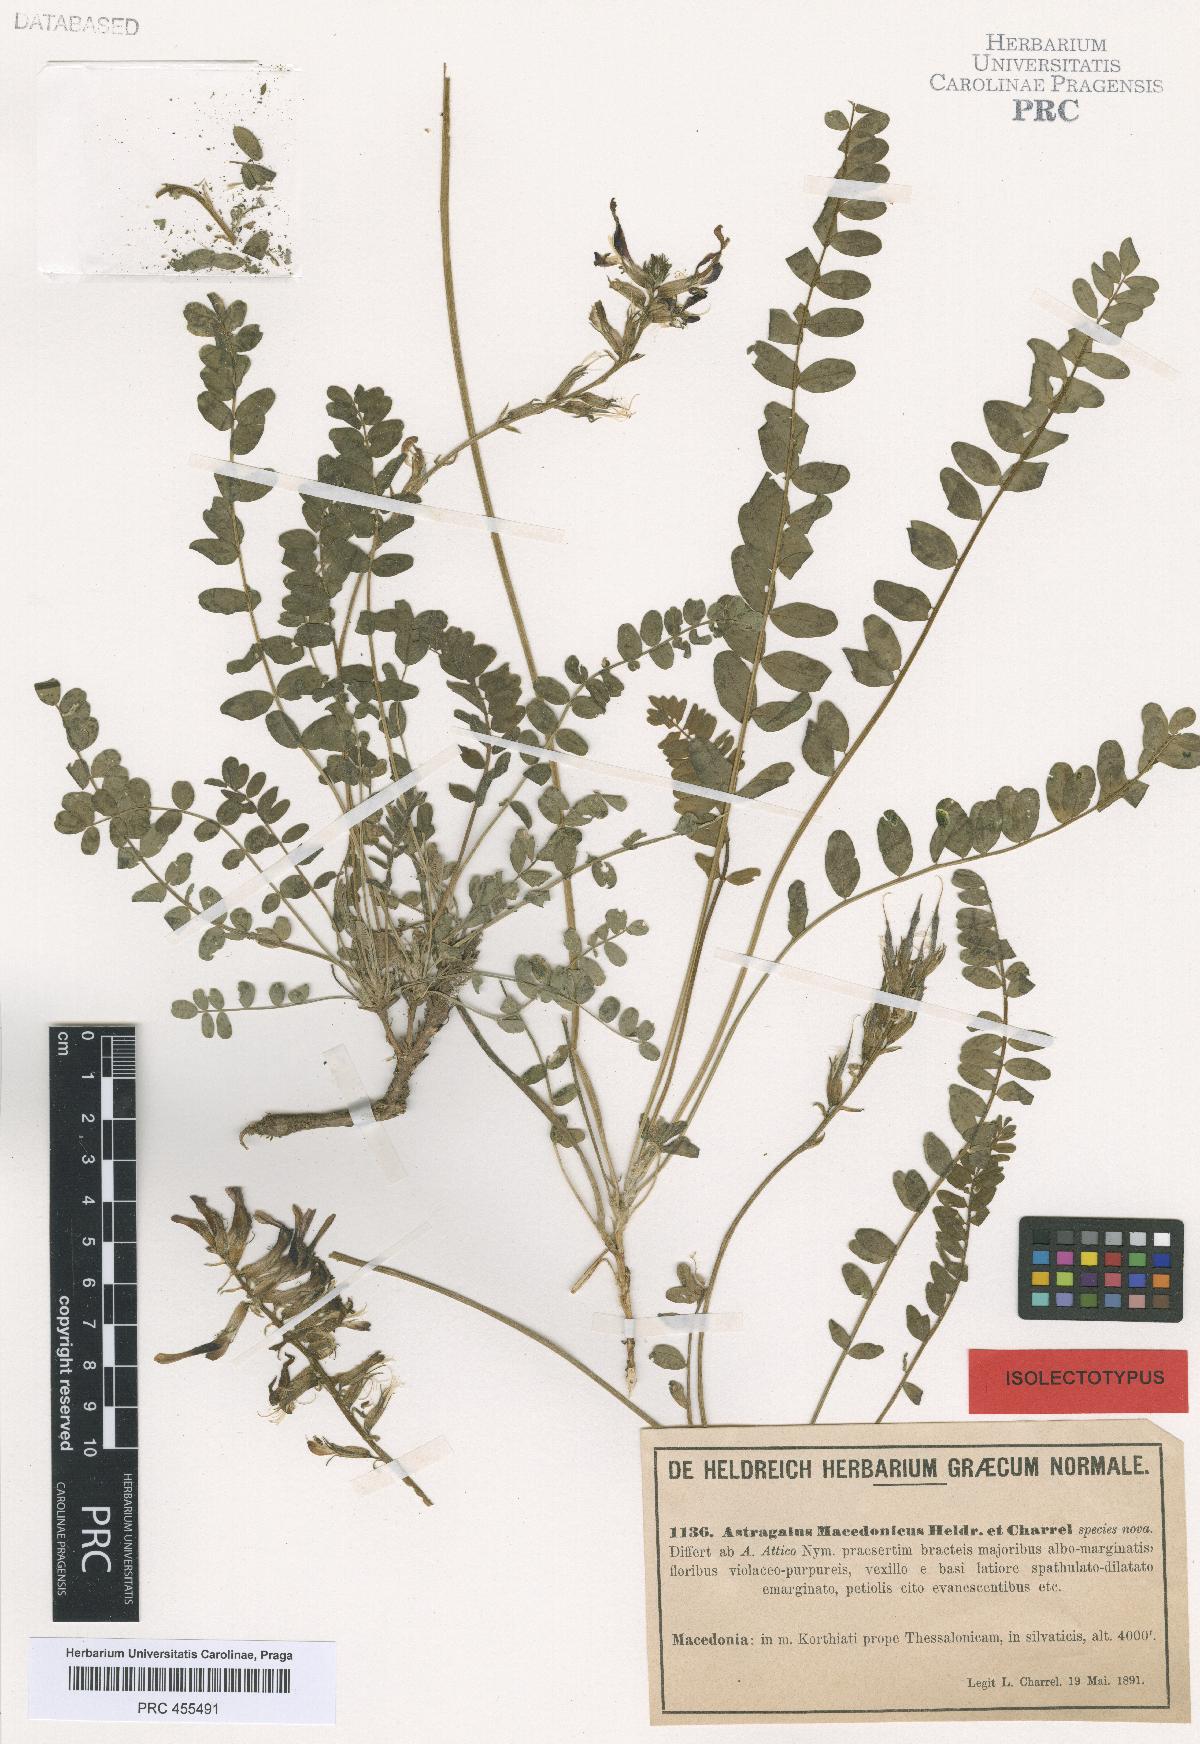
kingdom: Plantae
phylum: Tracheophyta
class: Magnoliopsida
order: Fabales
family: Fabaceae
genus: Astragalus
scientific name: Astragalus monspessulanus
